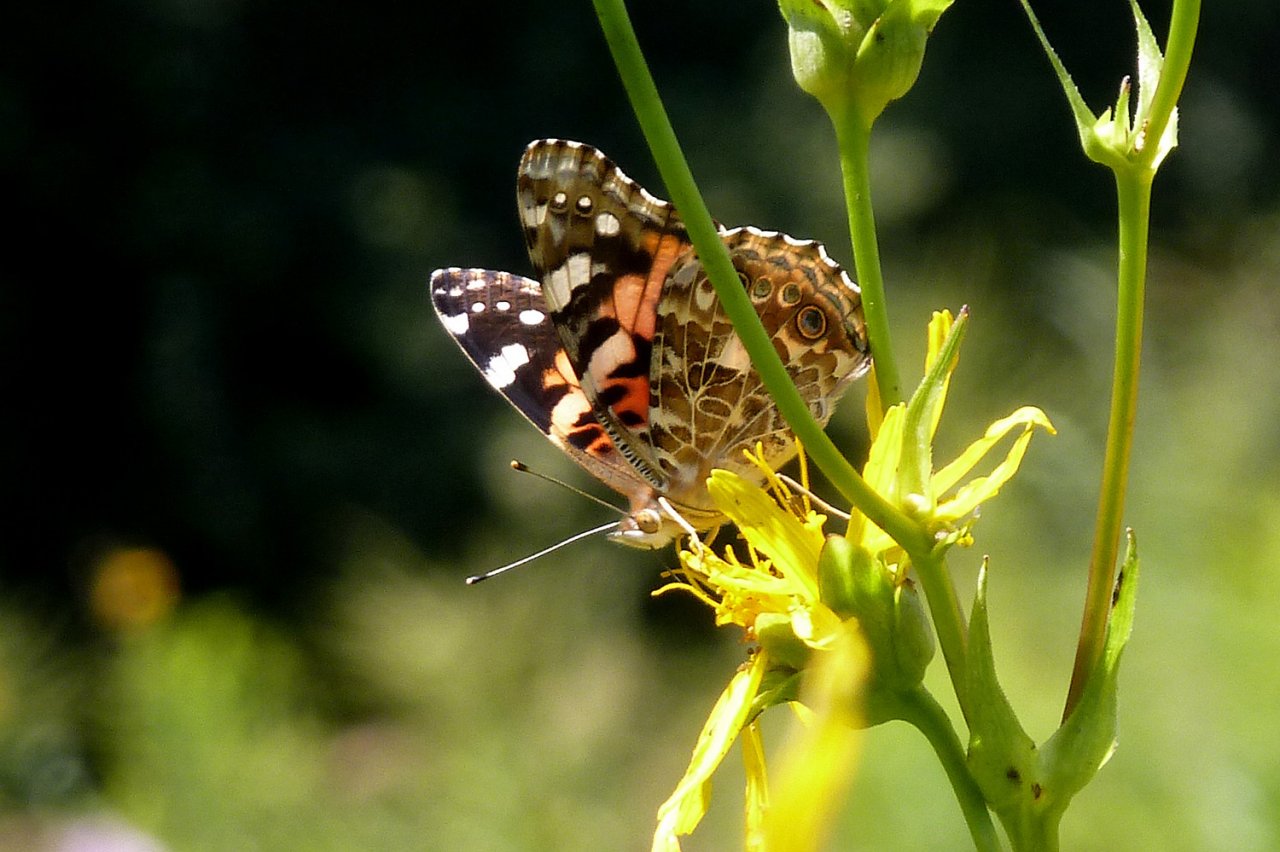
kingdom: Animalia
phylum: Arthropoda
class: Insecta
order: Lepidoptera
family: Nymphalidae
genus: Vanessa
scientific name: Vanessa cardui
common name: Painted Lady
